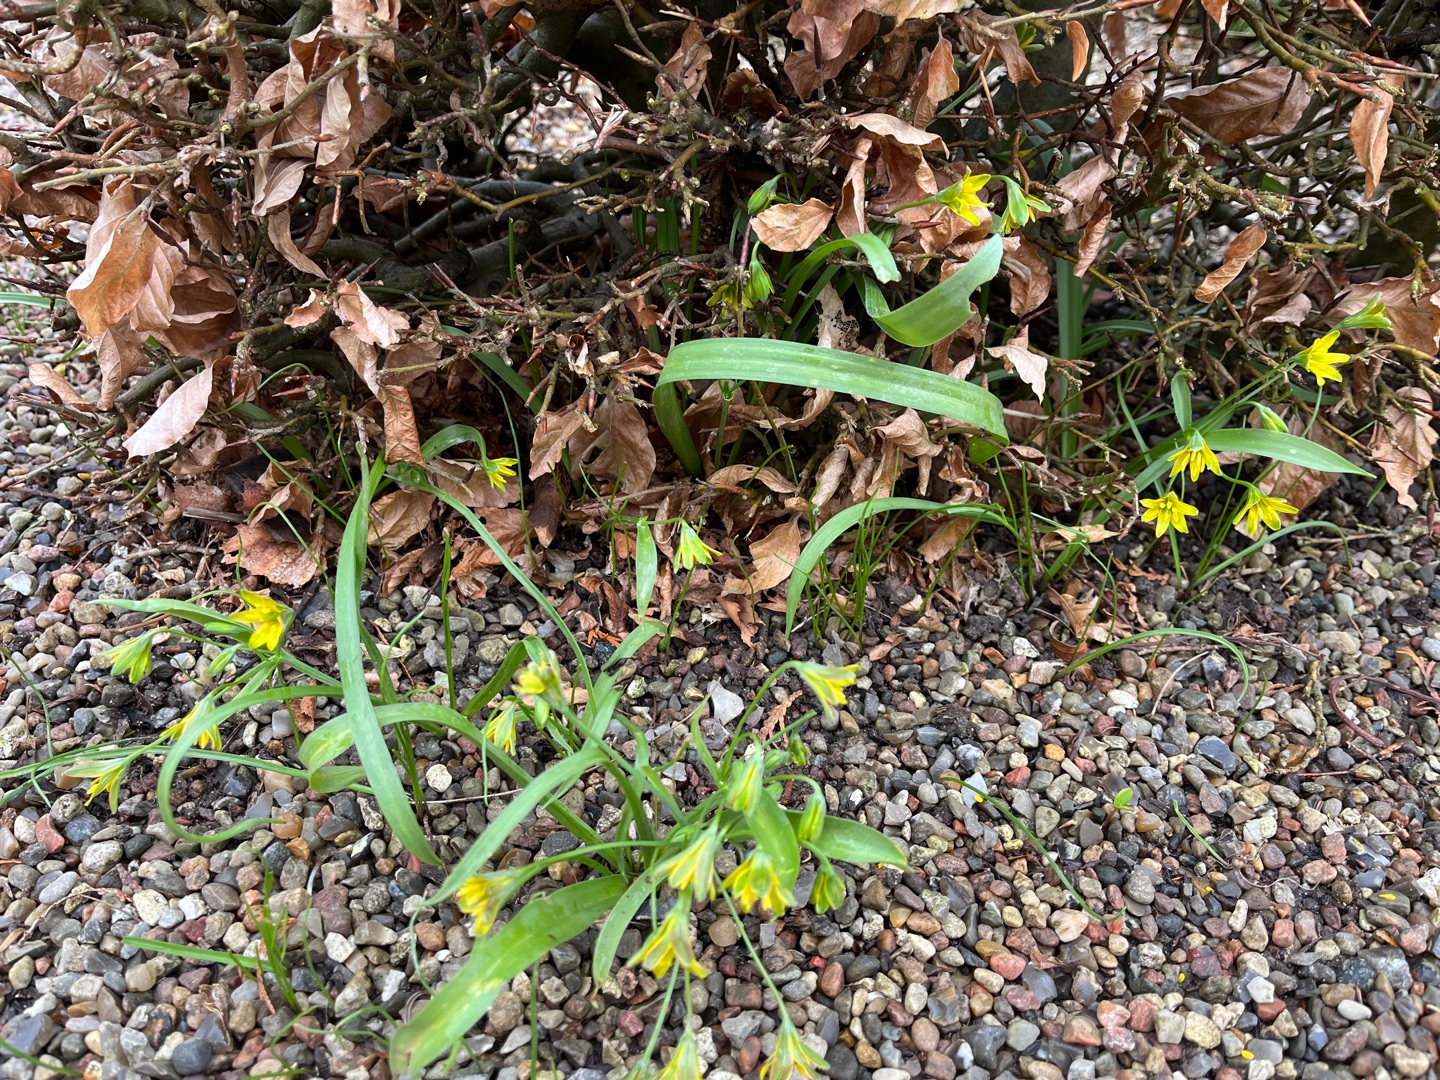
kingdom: Plantae
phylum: Tracheophyta
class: Liliopsida
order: Liliales
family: Liliaceae
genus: Gagea
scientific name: Gagea lutea
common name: Almindelig guldstjerne
